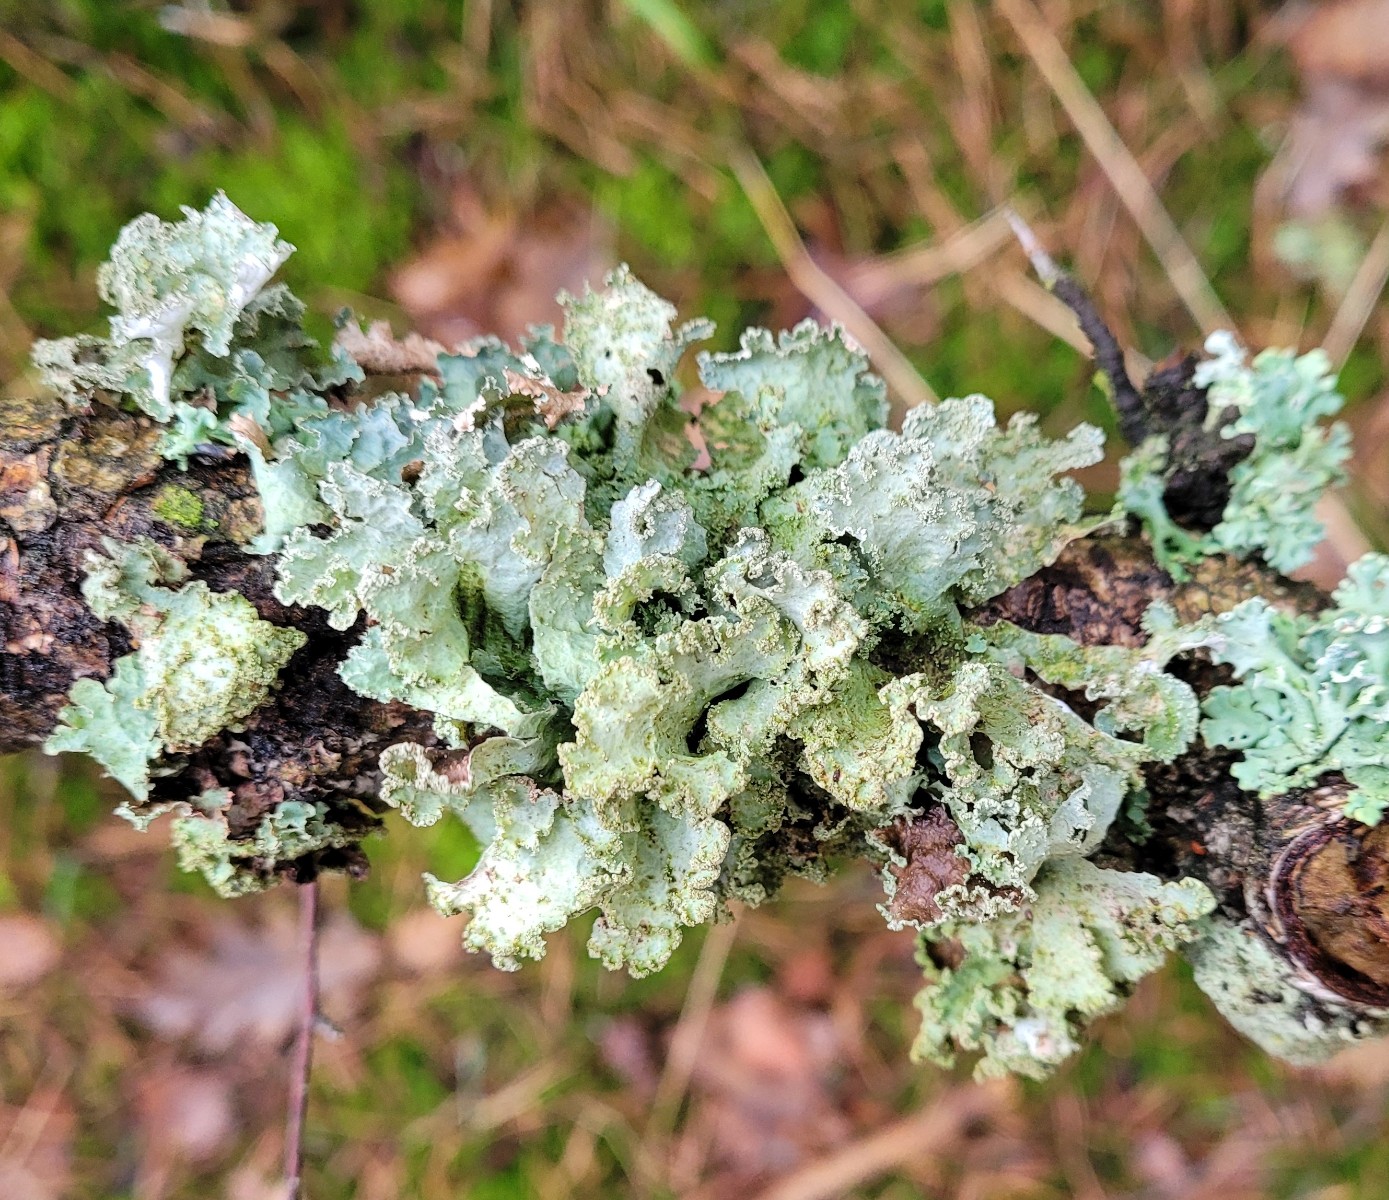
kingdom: Fungi
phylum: Ascomycota
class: Lecanoromycetes
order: Lecanorales
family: Parmeliaceae
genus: Platismatia
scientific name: Platismatia glauca
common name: blågrå papirlav
